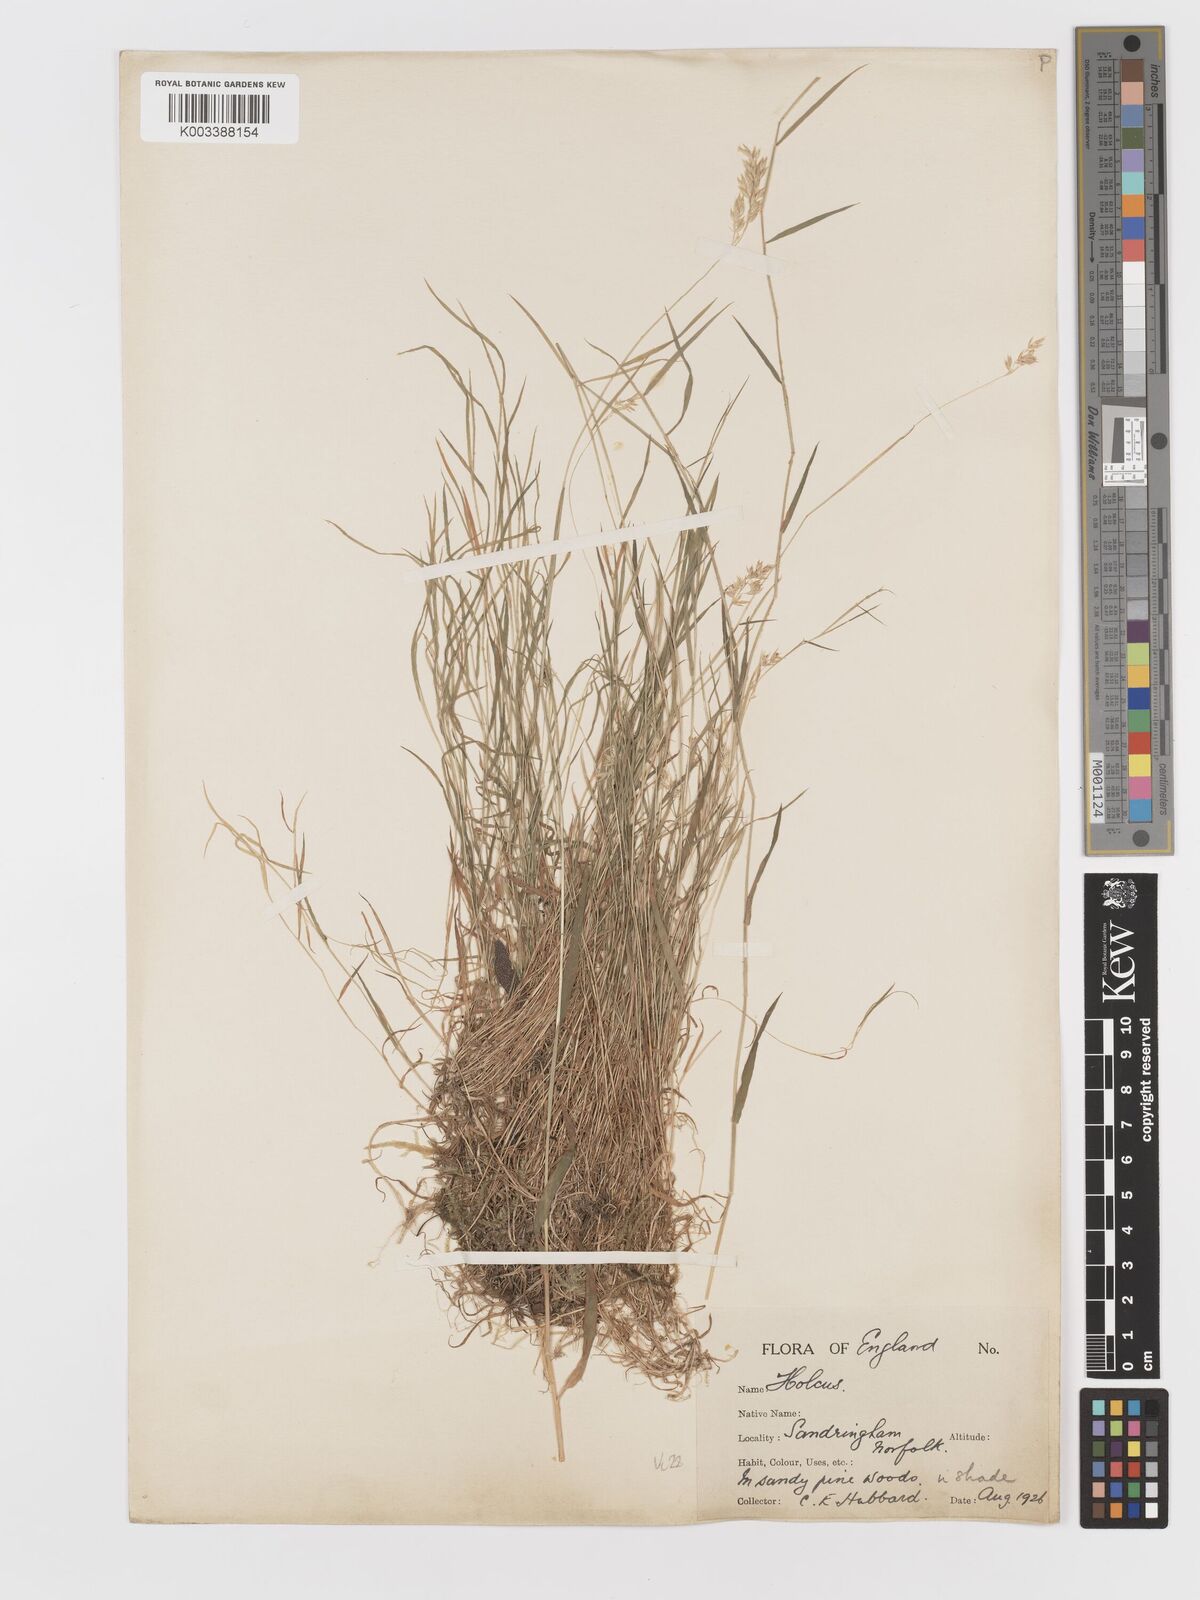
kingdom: Plantae
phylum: Tracheophyta
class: Liliopsida
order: Poales
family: Poaceae
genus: Holcus
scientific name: Holcus mollis
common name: Creeping velvetgrass
